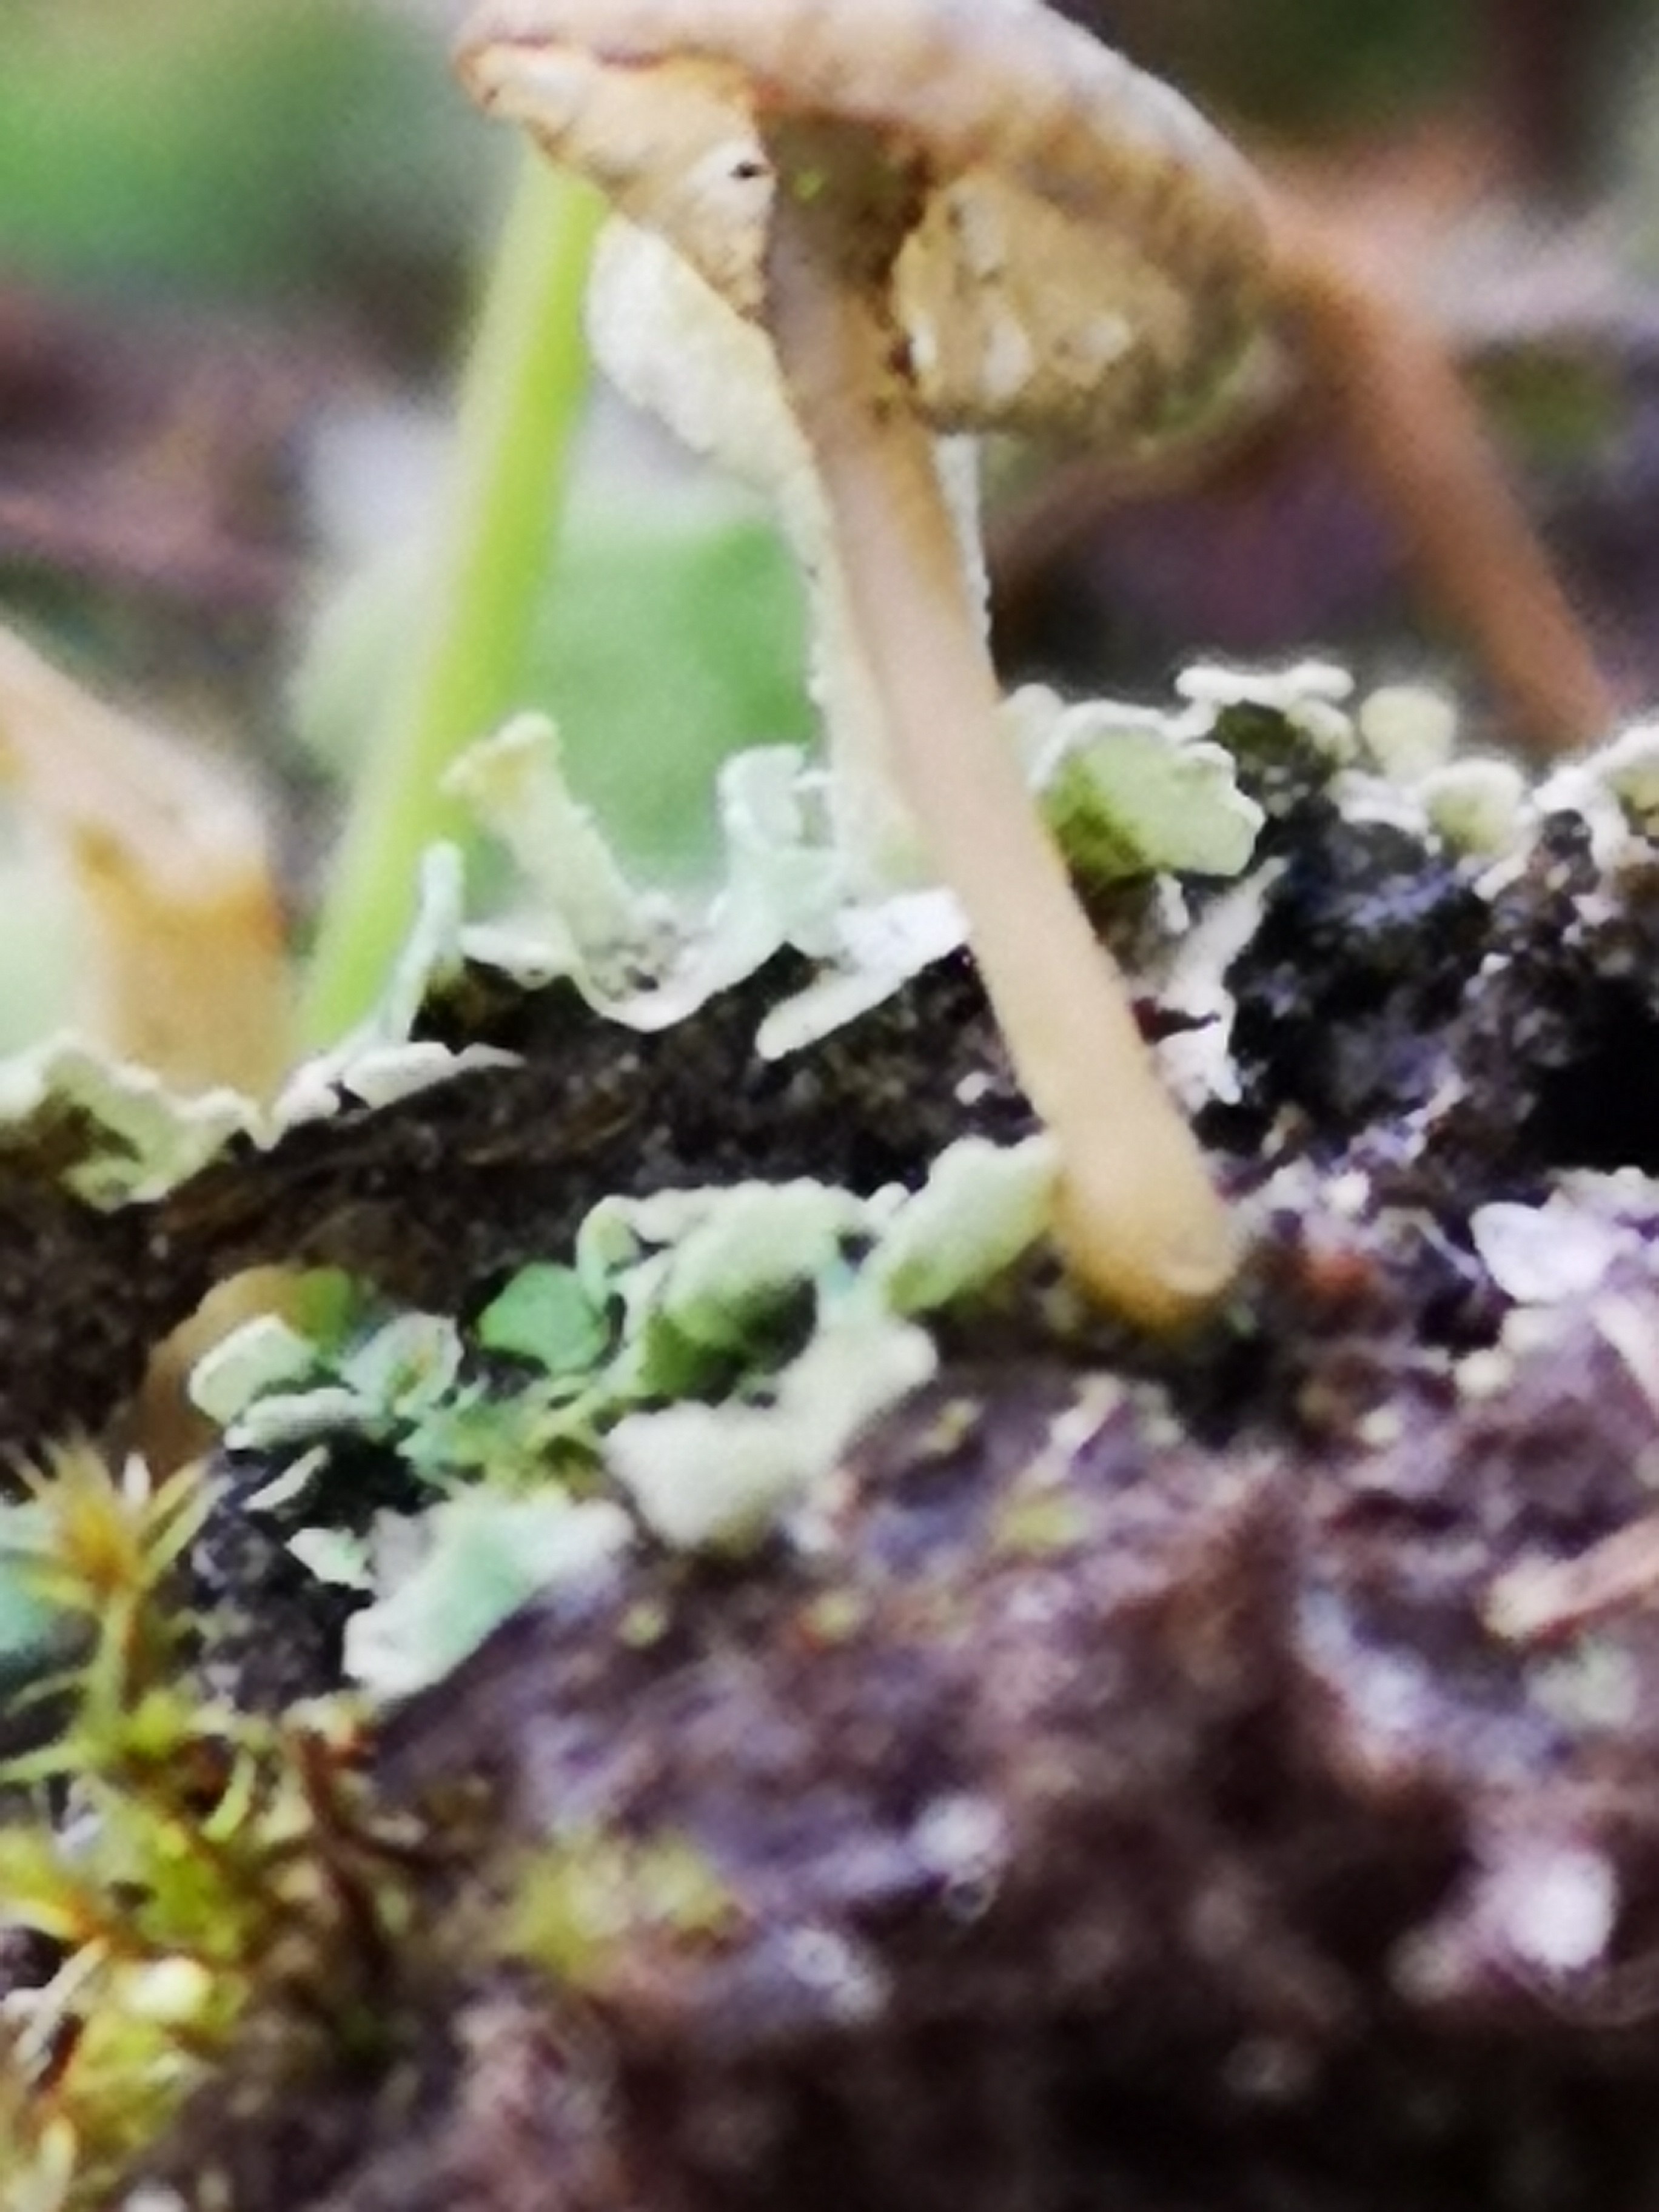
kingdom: Fungi
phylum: Basidiomycota
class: Agaricomycetes
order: Agaricales
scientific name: Agaricales
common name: champignonordenen
